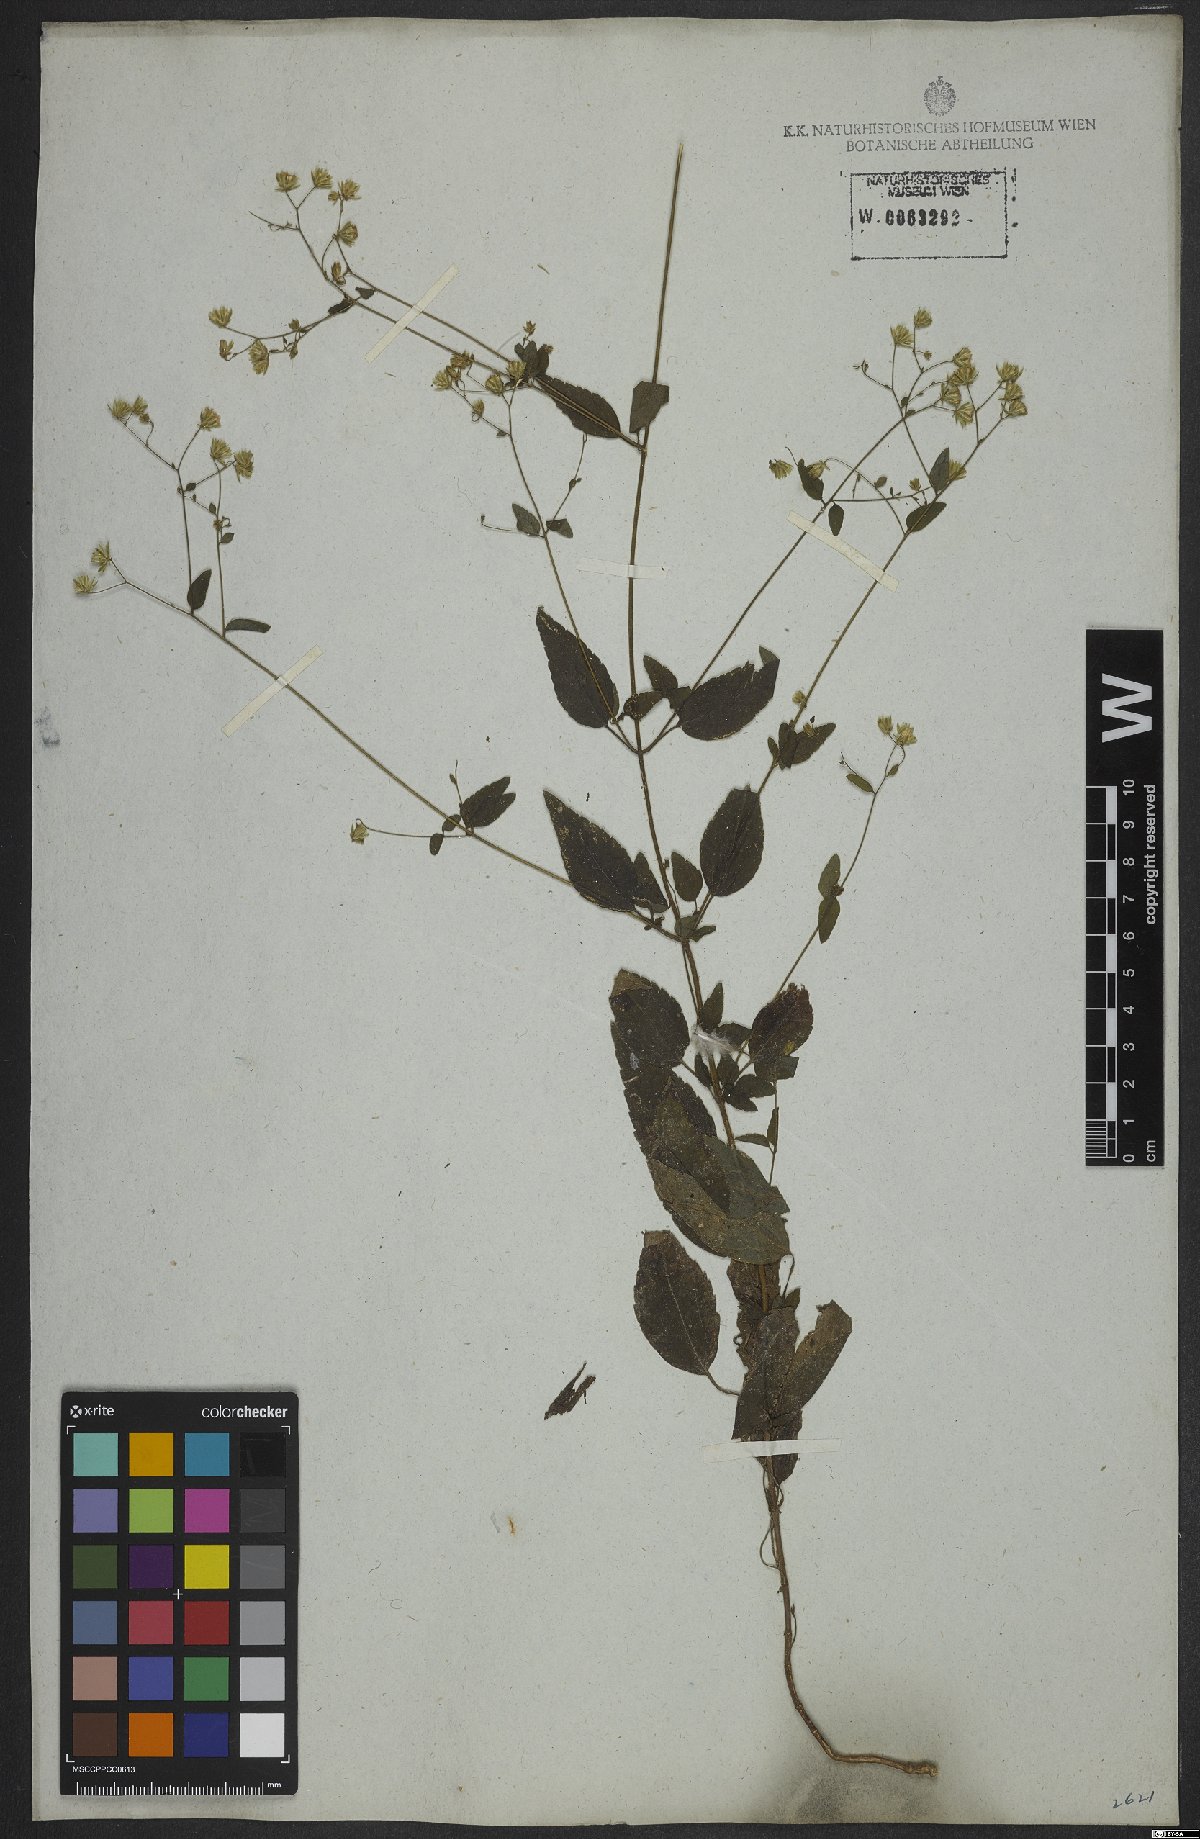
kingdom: Plantae
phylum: Tracheophyta
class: Magnoliopsida
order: Asterales
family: Asteraceae
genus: Fleischmannia
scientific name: Fleischmannia microstemon
